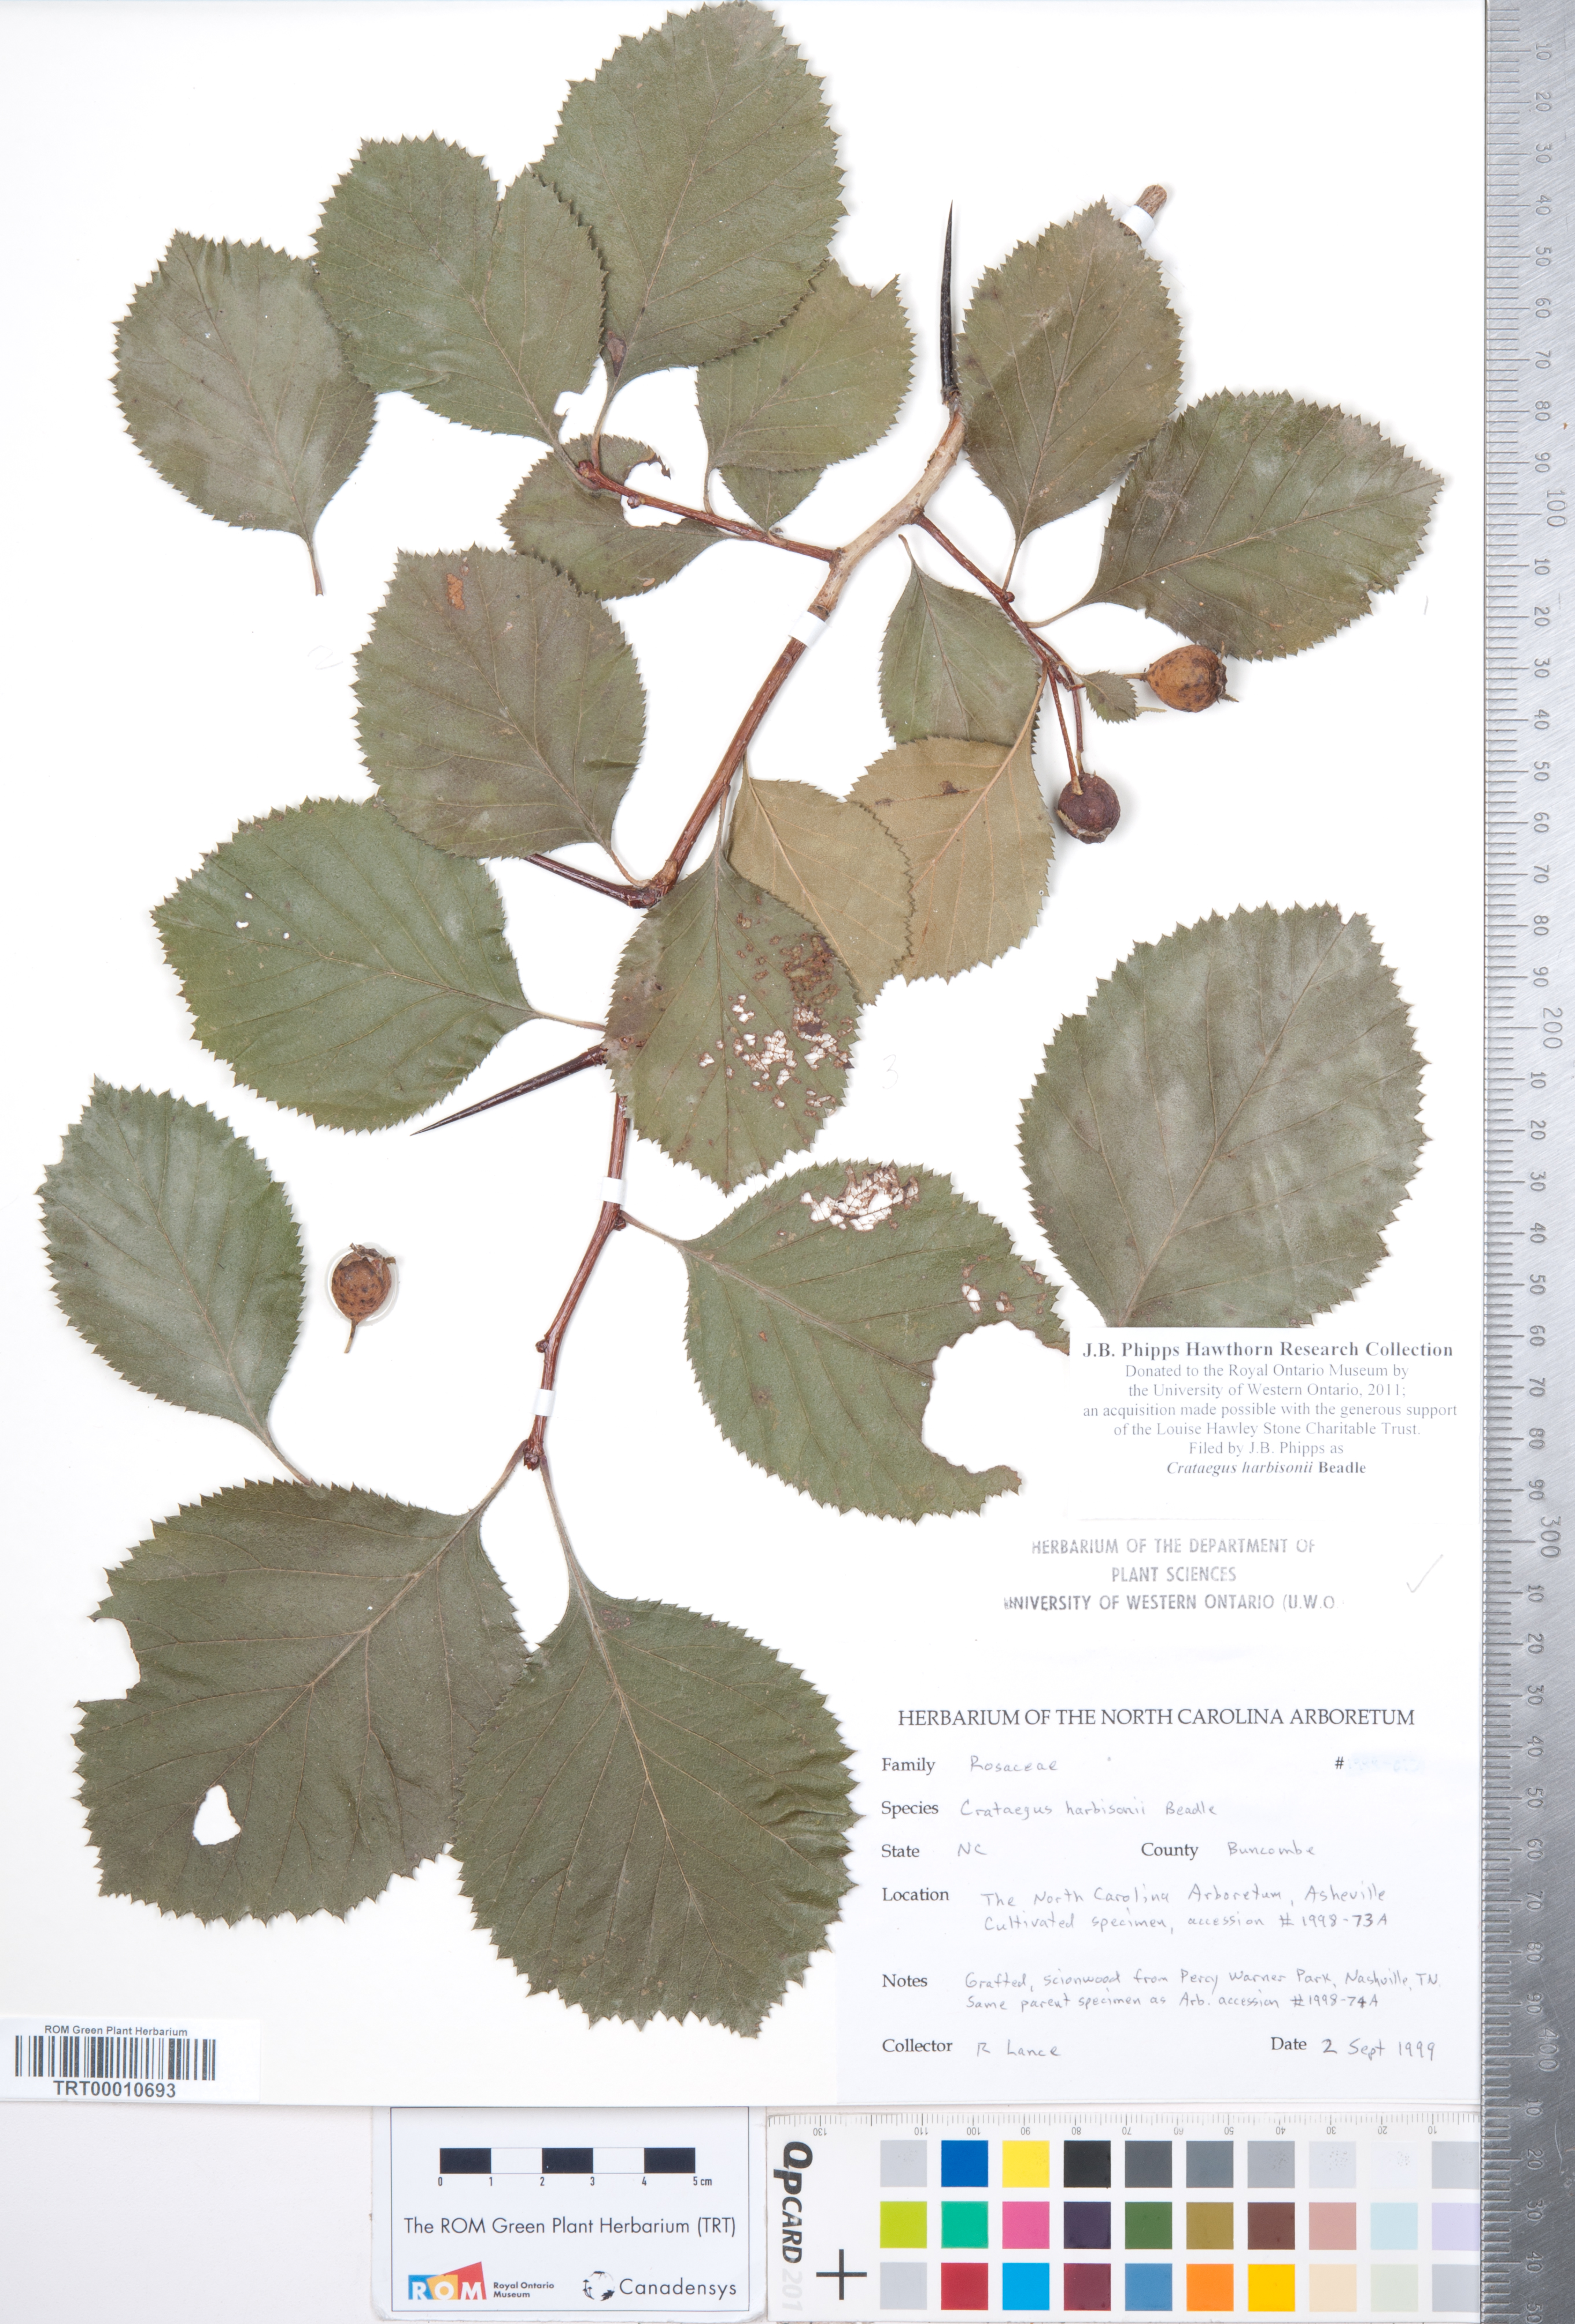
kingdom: Plantae
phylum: Tracheophyta
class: Magnoliopsida
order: Rosales
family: Rosaceae
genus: Crataegus
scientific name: Crataegus harbisonii
